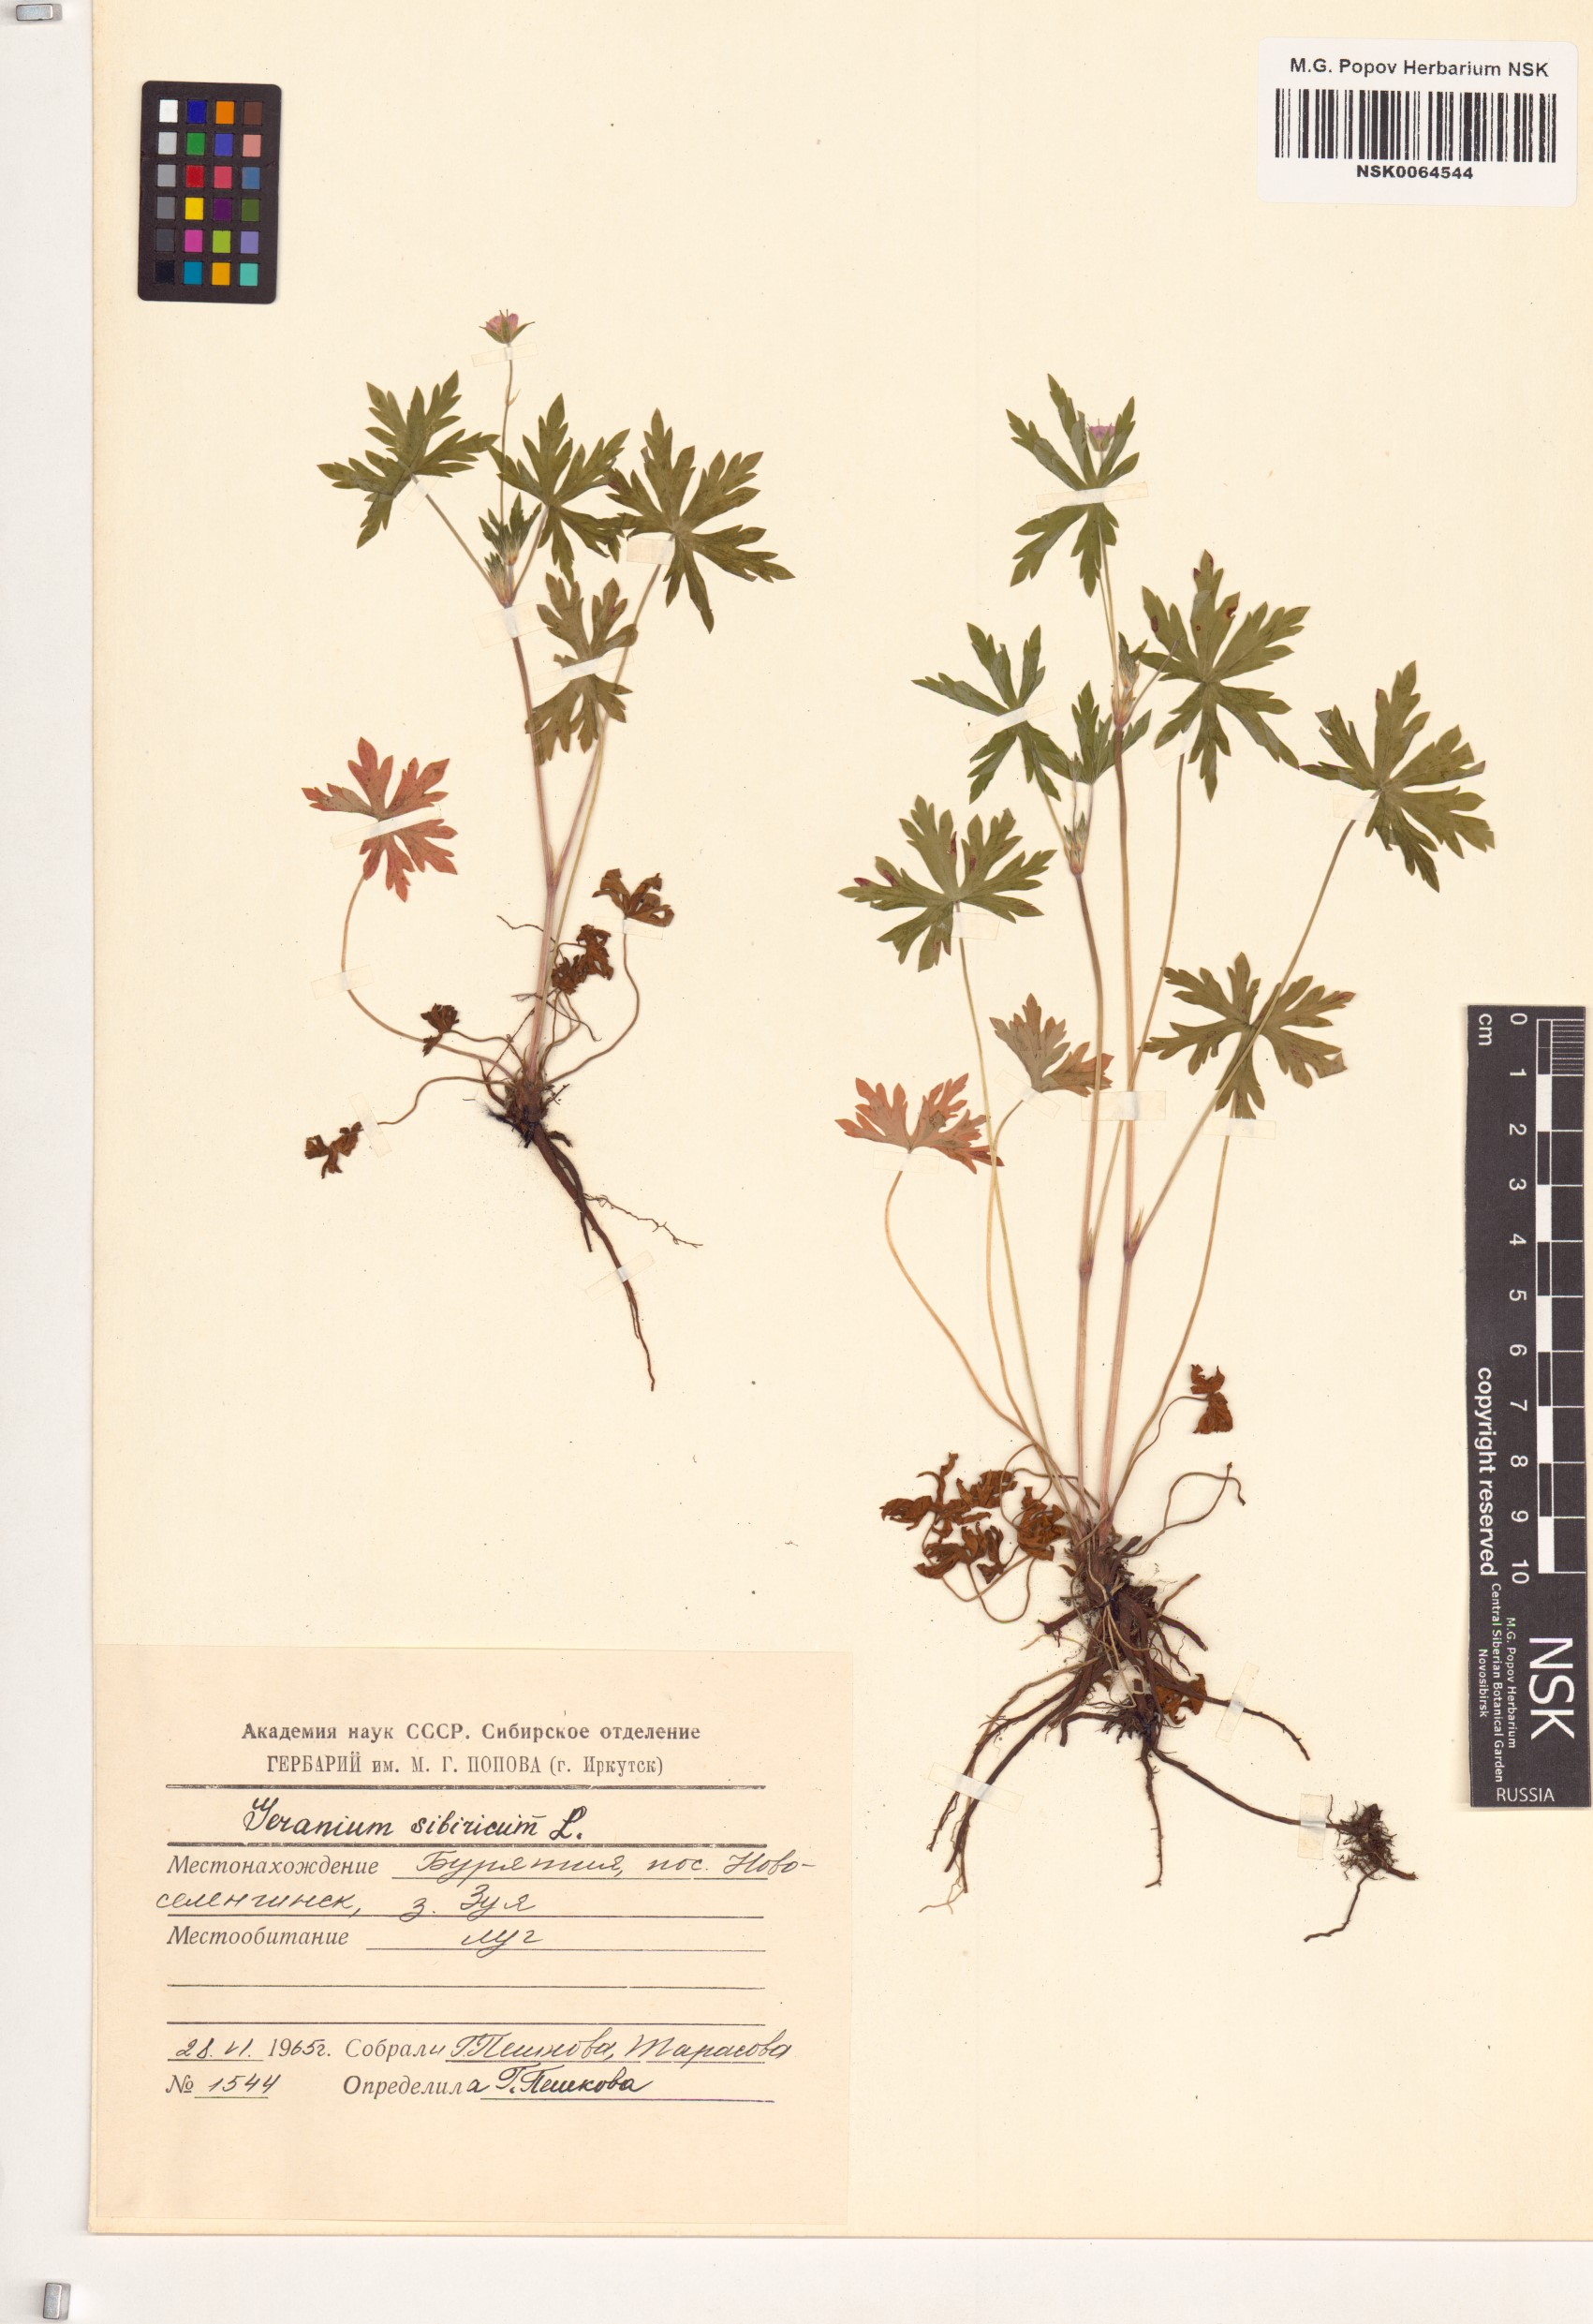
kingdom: Plantae
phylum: Tracheophyta
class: Magnoliopsida
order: Geraniales
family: Geraniaceae
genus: Geranium
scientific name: Geranium sibiricum
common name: Siberian crane's-bill
